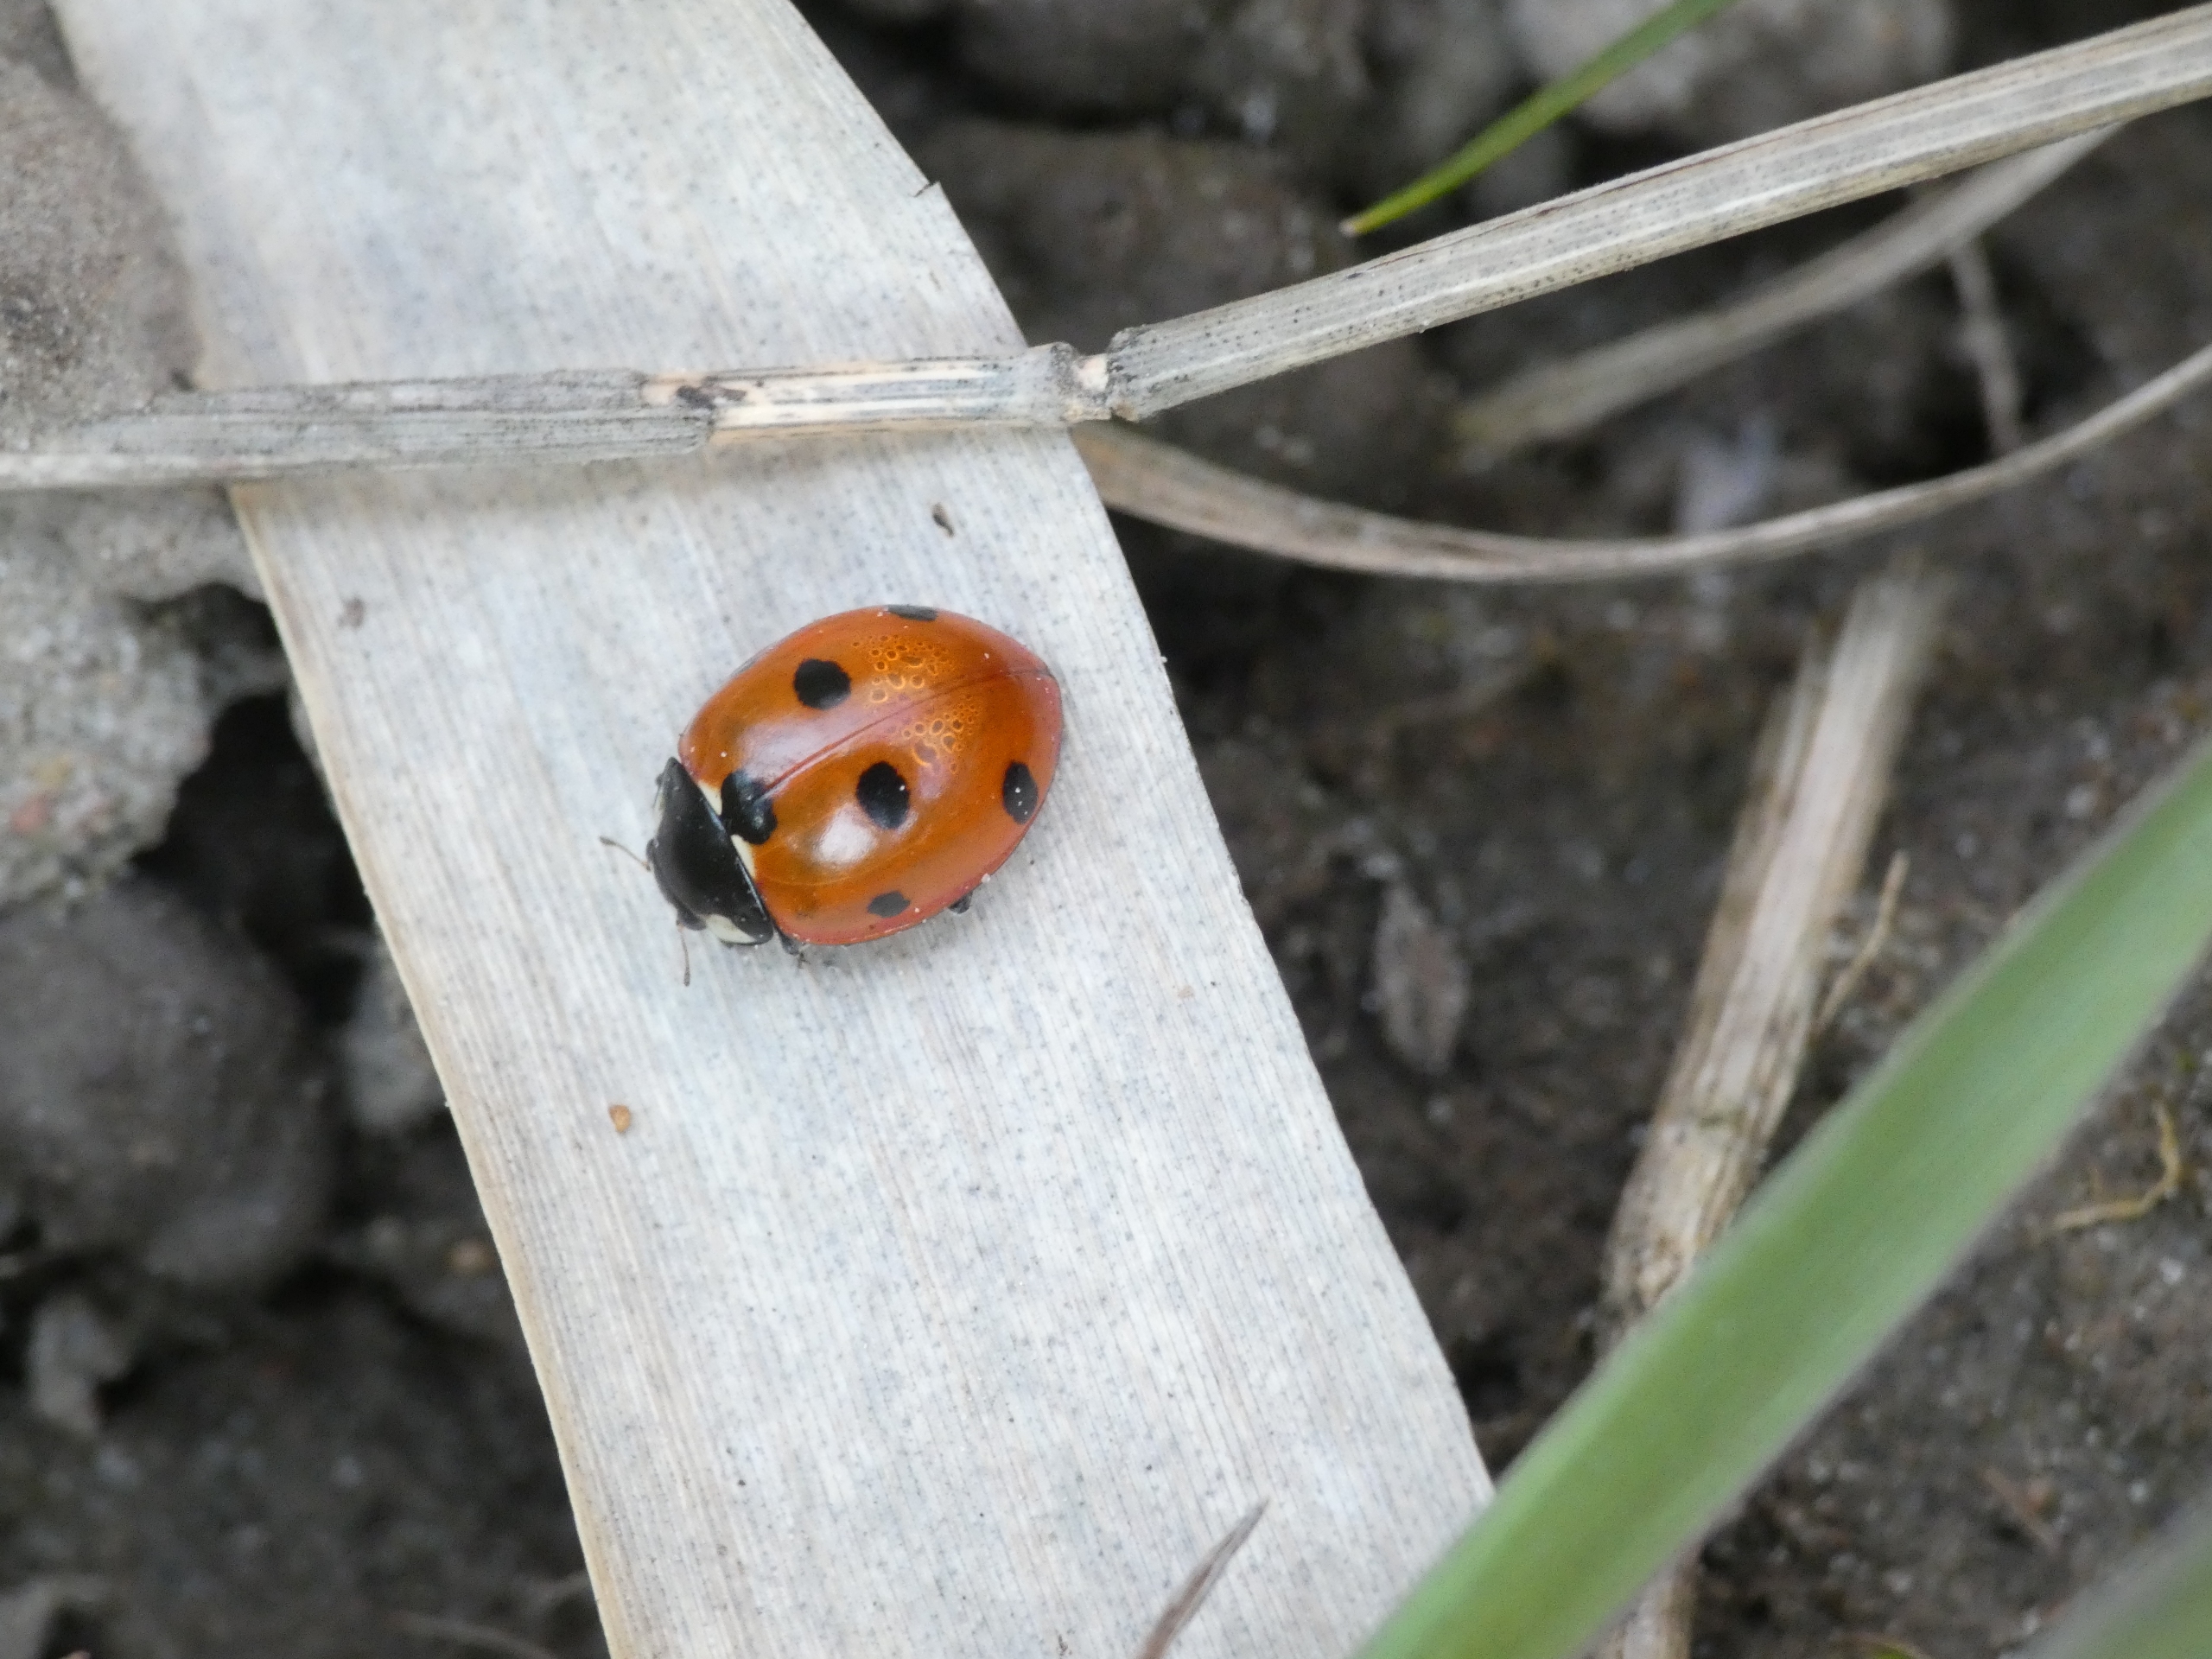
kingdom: Animalia
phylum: Arthropoda
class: Insecta
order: Coleoptera
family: Coccinellidae
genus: Coccinella
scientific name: Coccinella septempunctata
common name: Syvplettet mariehøne
